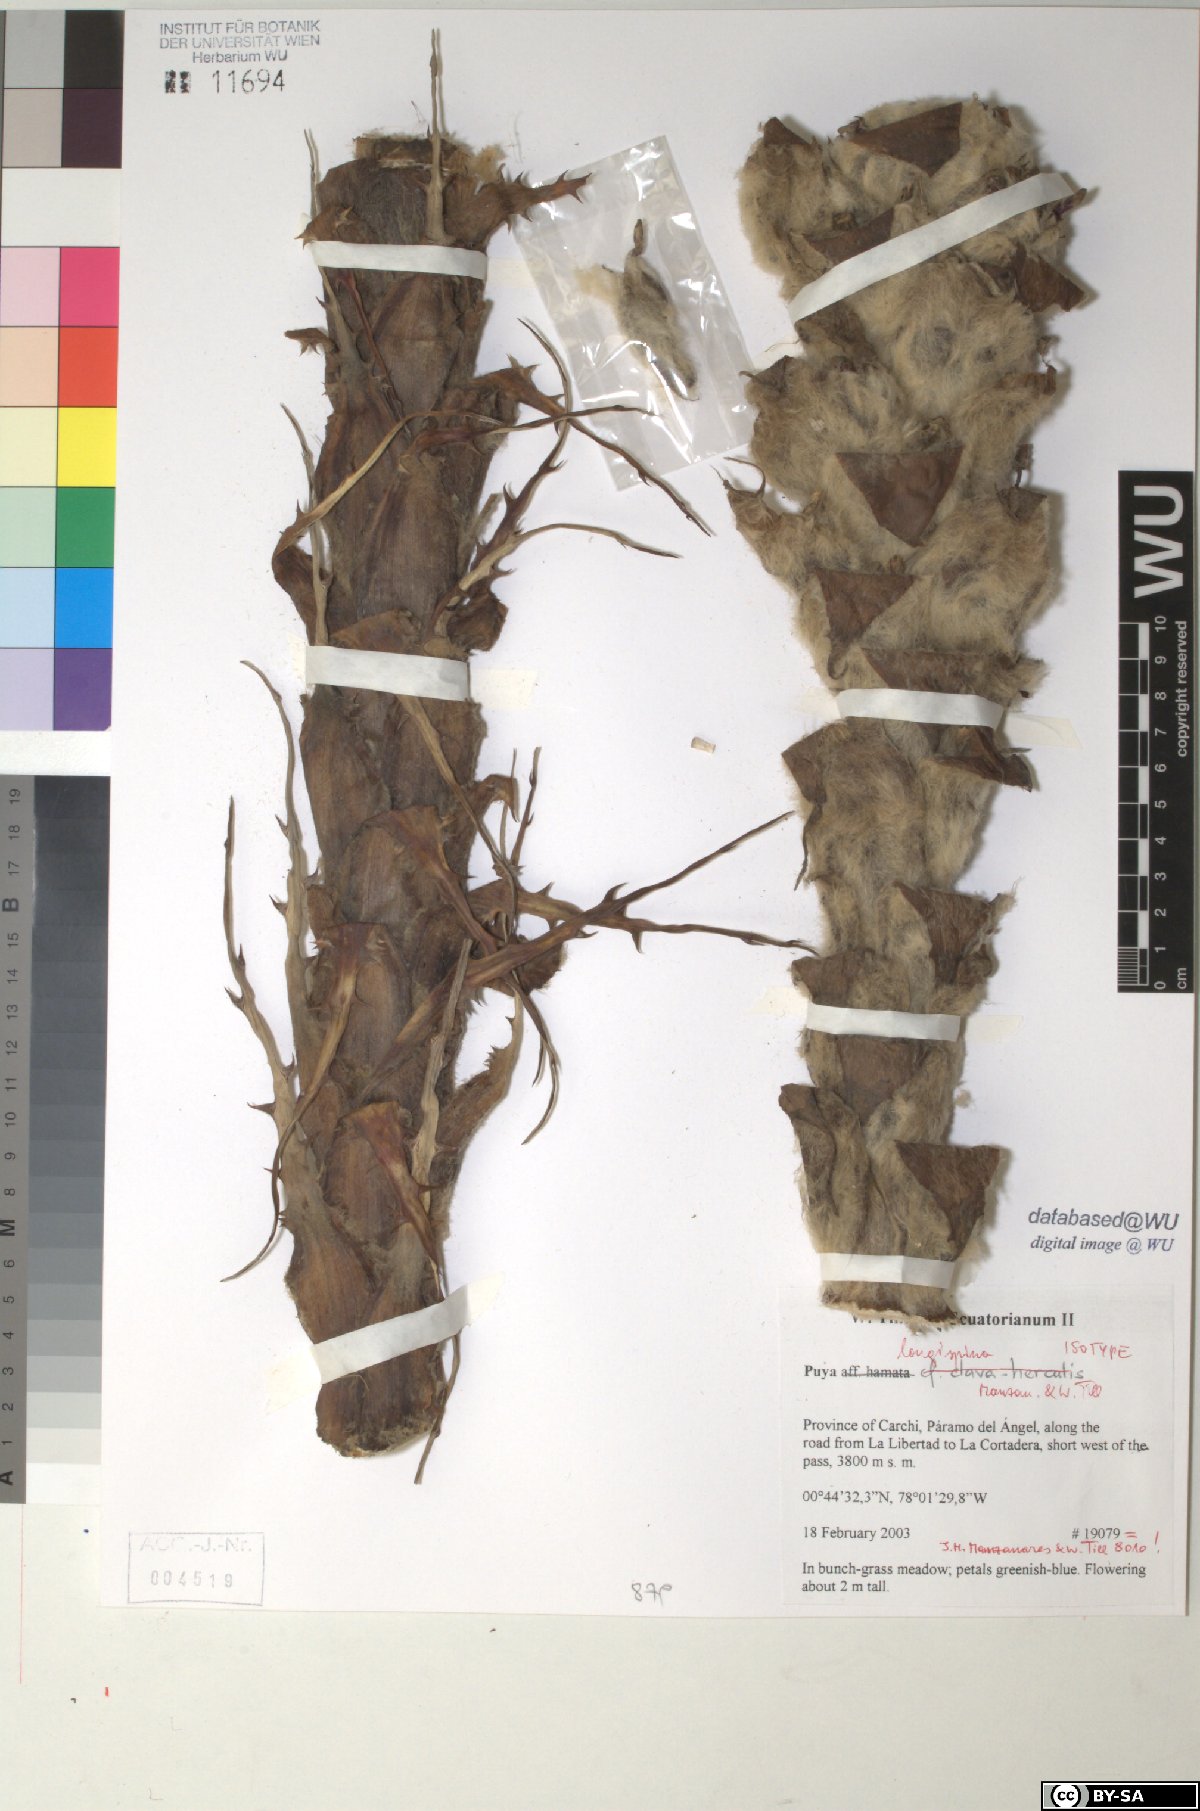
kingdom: Plantae
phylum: Tracheophyta
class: Liliopsida
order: Poales
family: Bromeliaceae
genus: Puya
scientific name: Puya longispina
